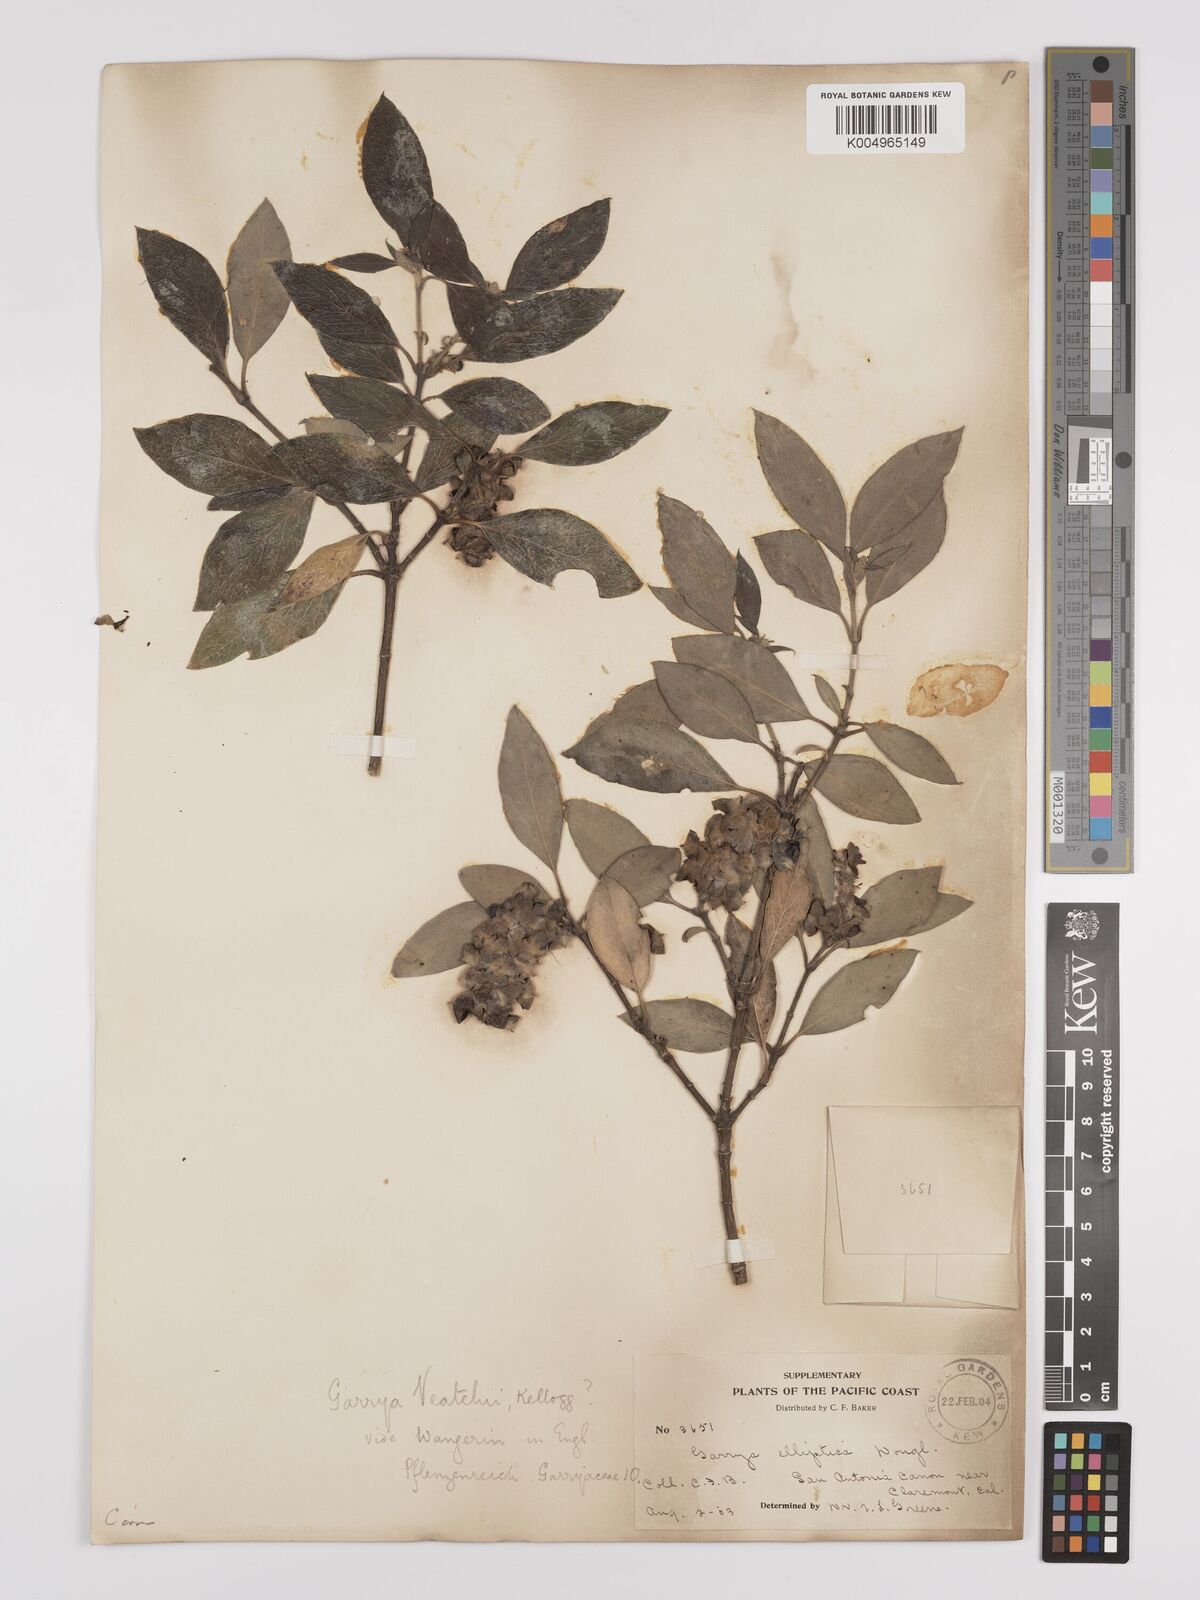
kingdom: Plantae
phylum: Tracheophyta
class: Magnoliopsida
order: Garryales
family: Garryaceae
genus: Garrya
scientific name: Garrya veatchii
